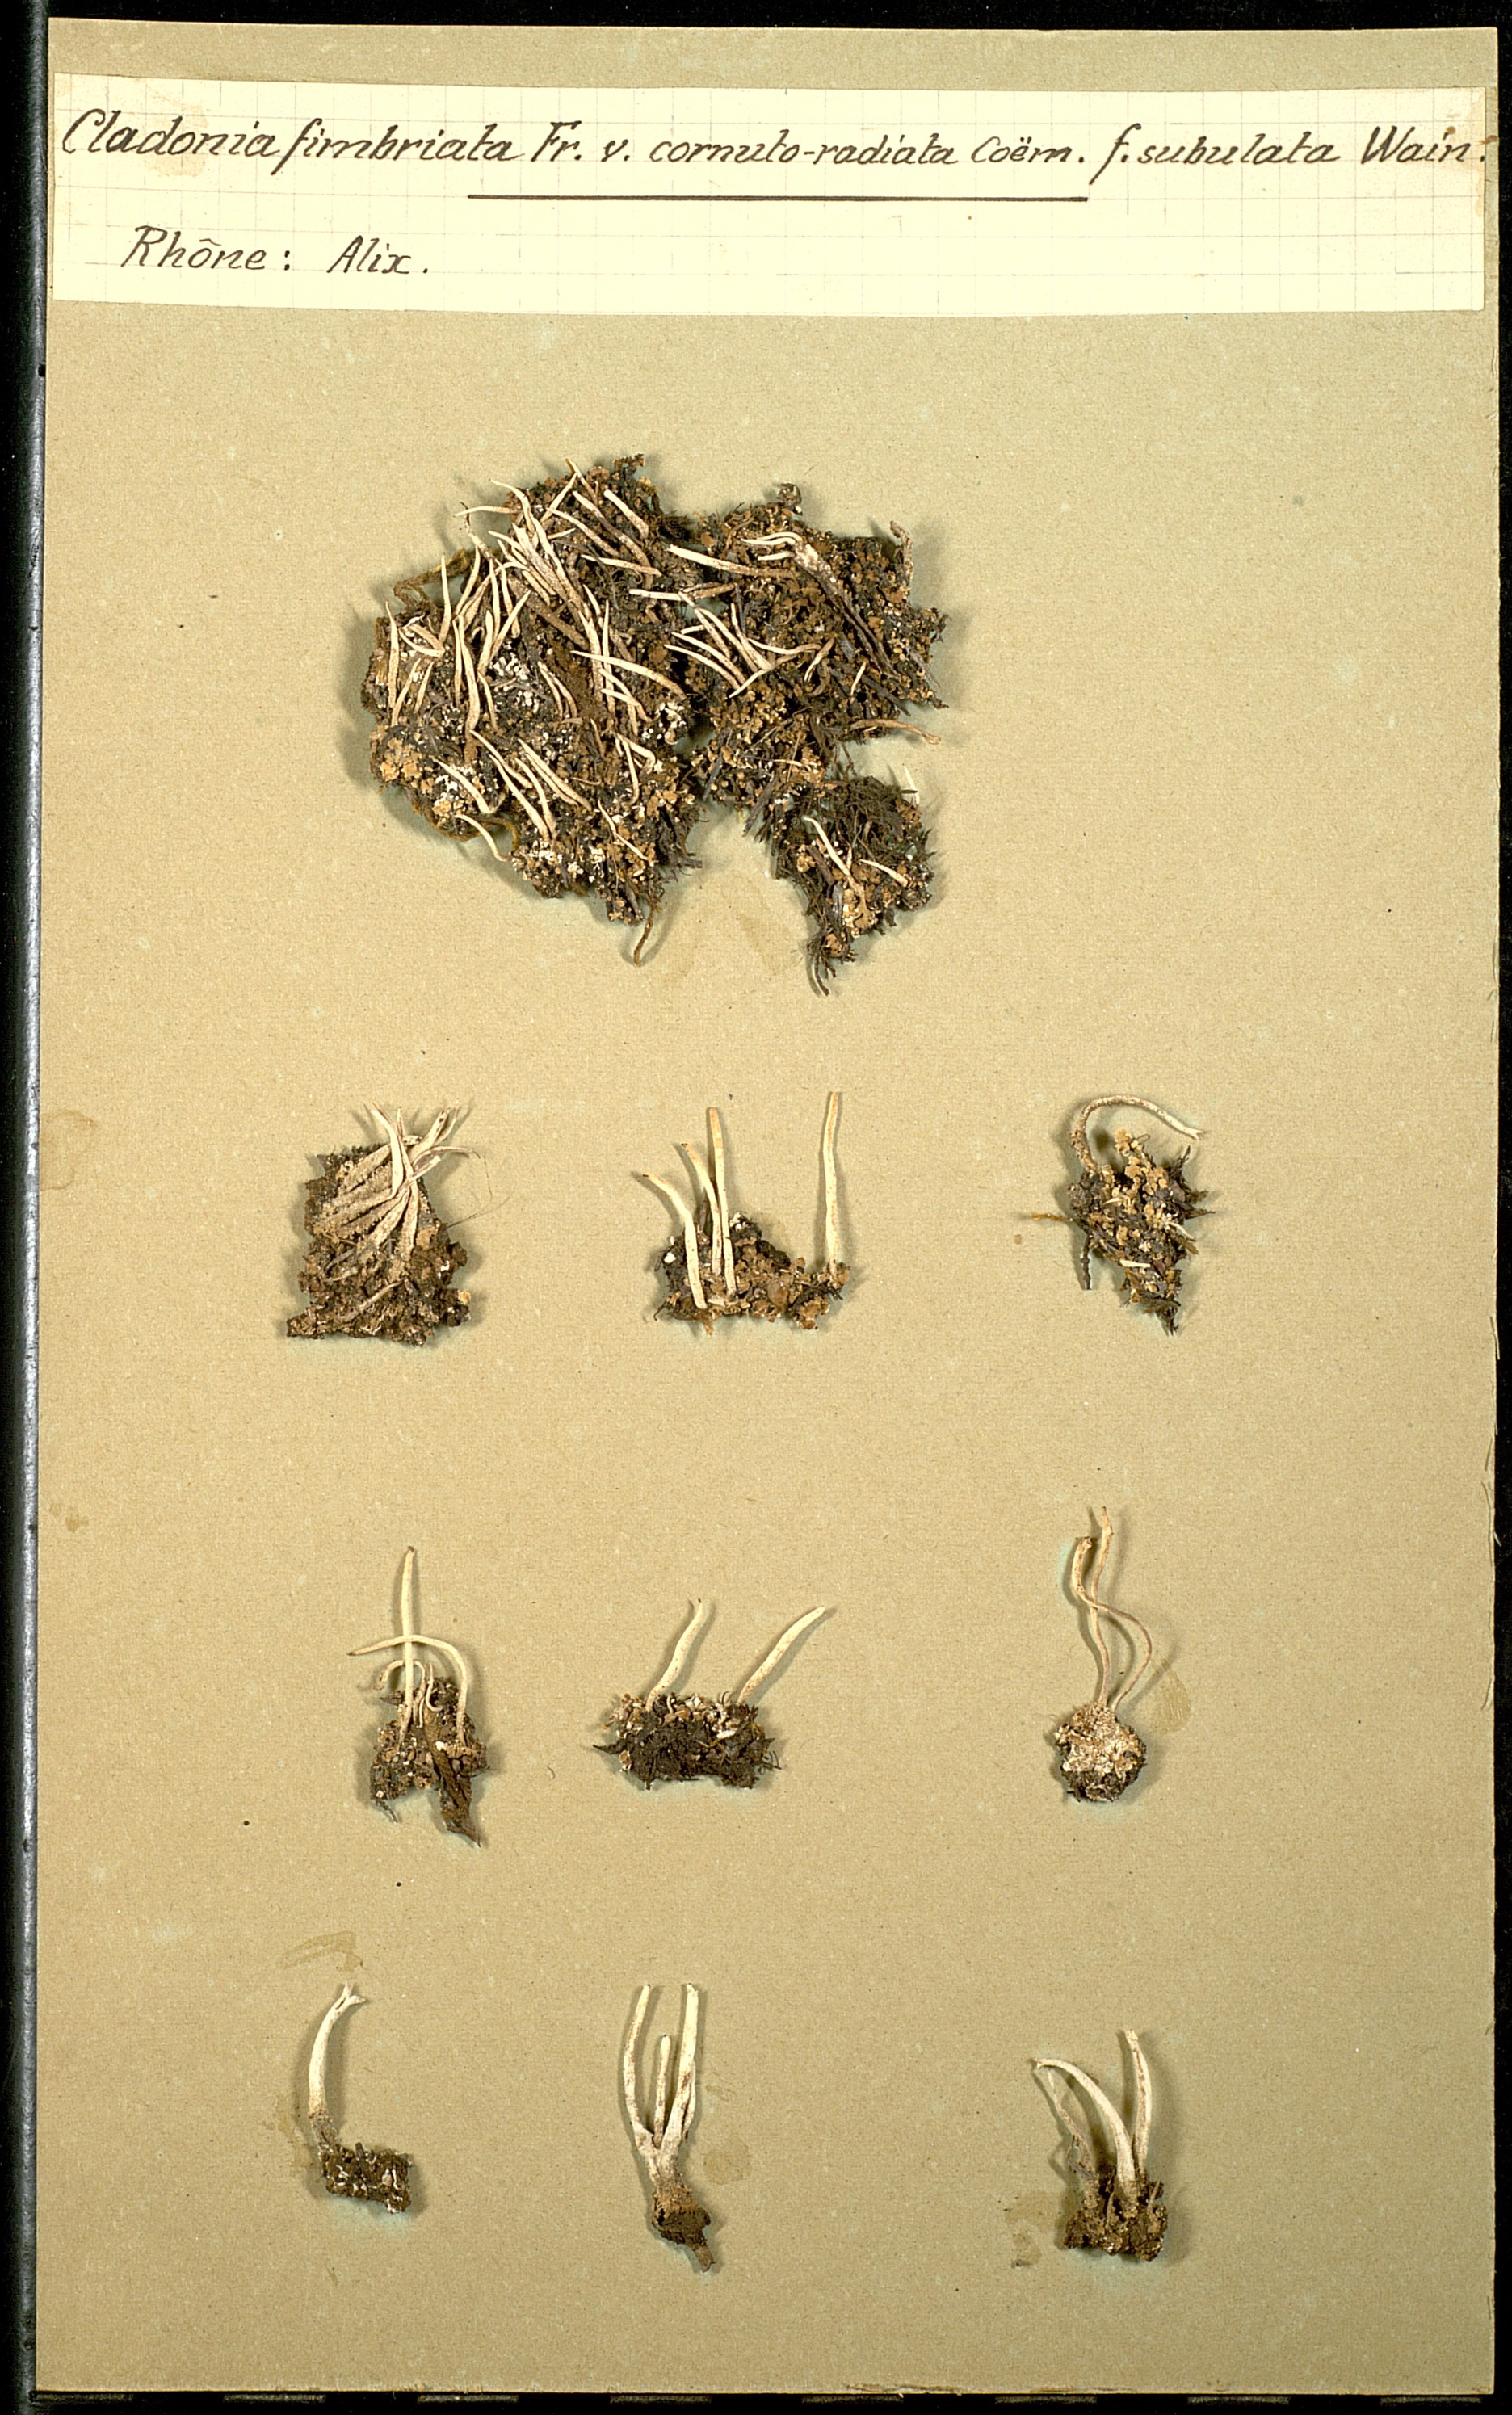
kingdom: Fungi
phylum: Ascomycota
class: Lecanoromycetes
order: Lecanorales
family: Cladoniaceae
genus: Cladonia
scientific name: Cladonia fimbriata
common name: Powdered trumpet lichen
